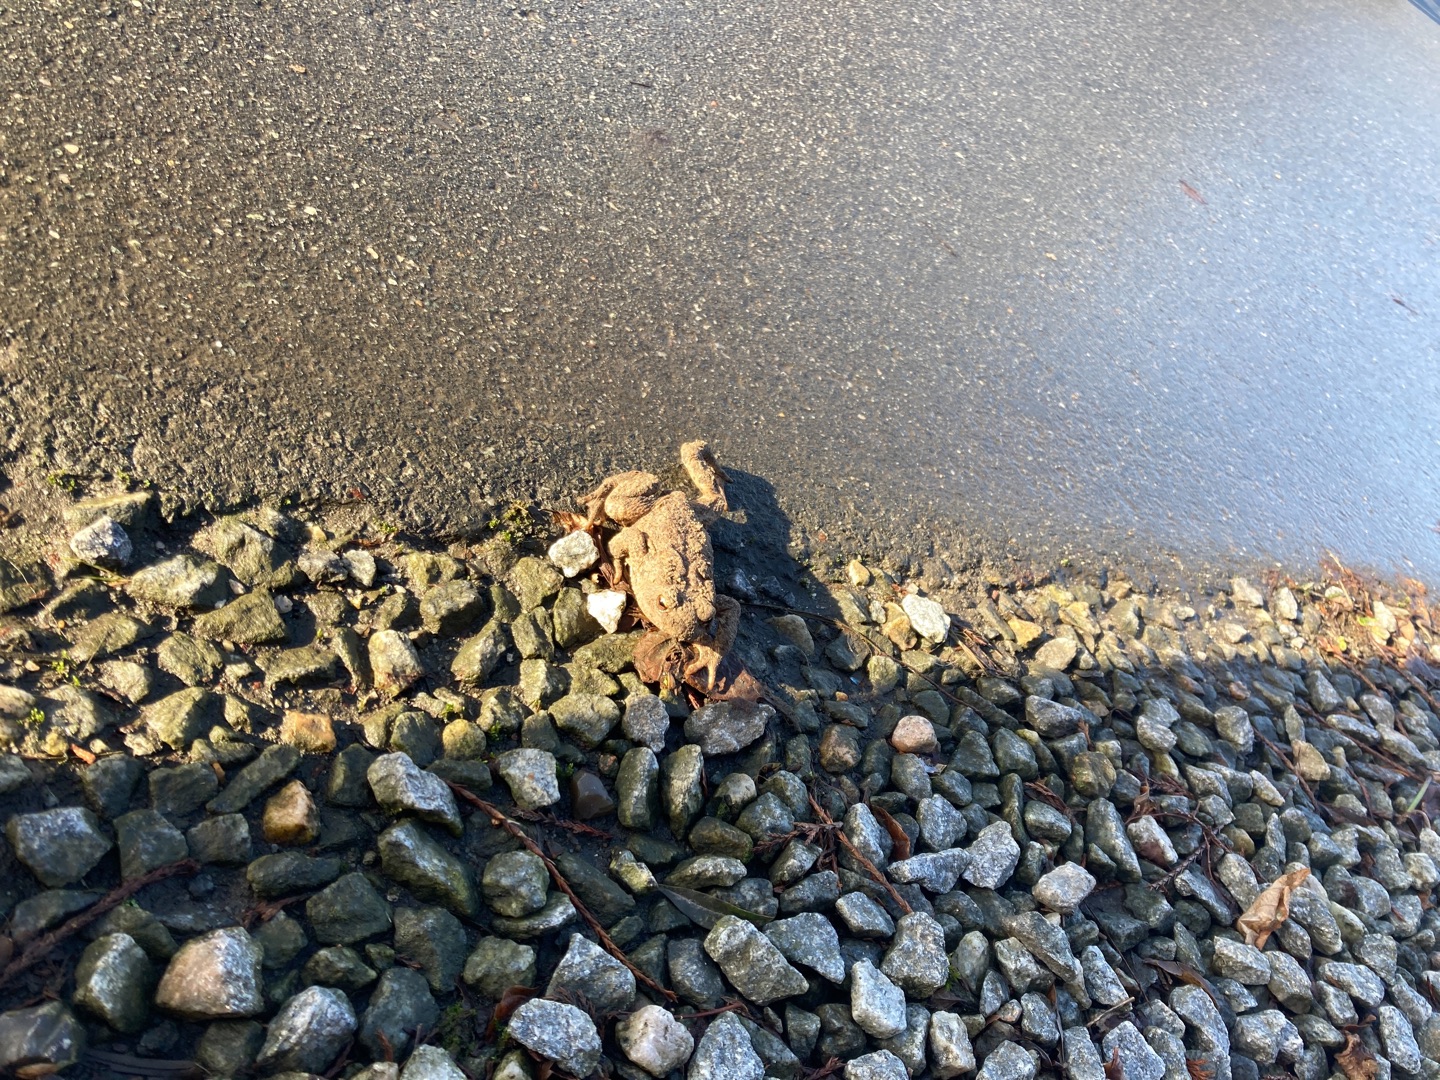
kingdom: Animalia
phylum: Chordata
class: Amphibia
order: Anura
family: Bufonidae
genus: Bufo
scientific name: Bufo bufo
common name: Skrubtudse
